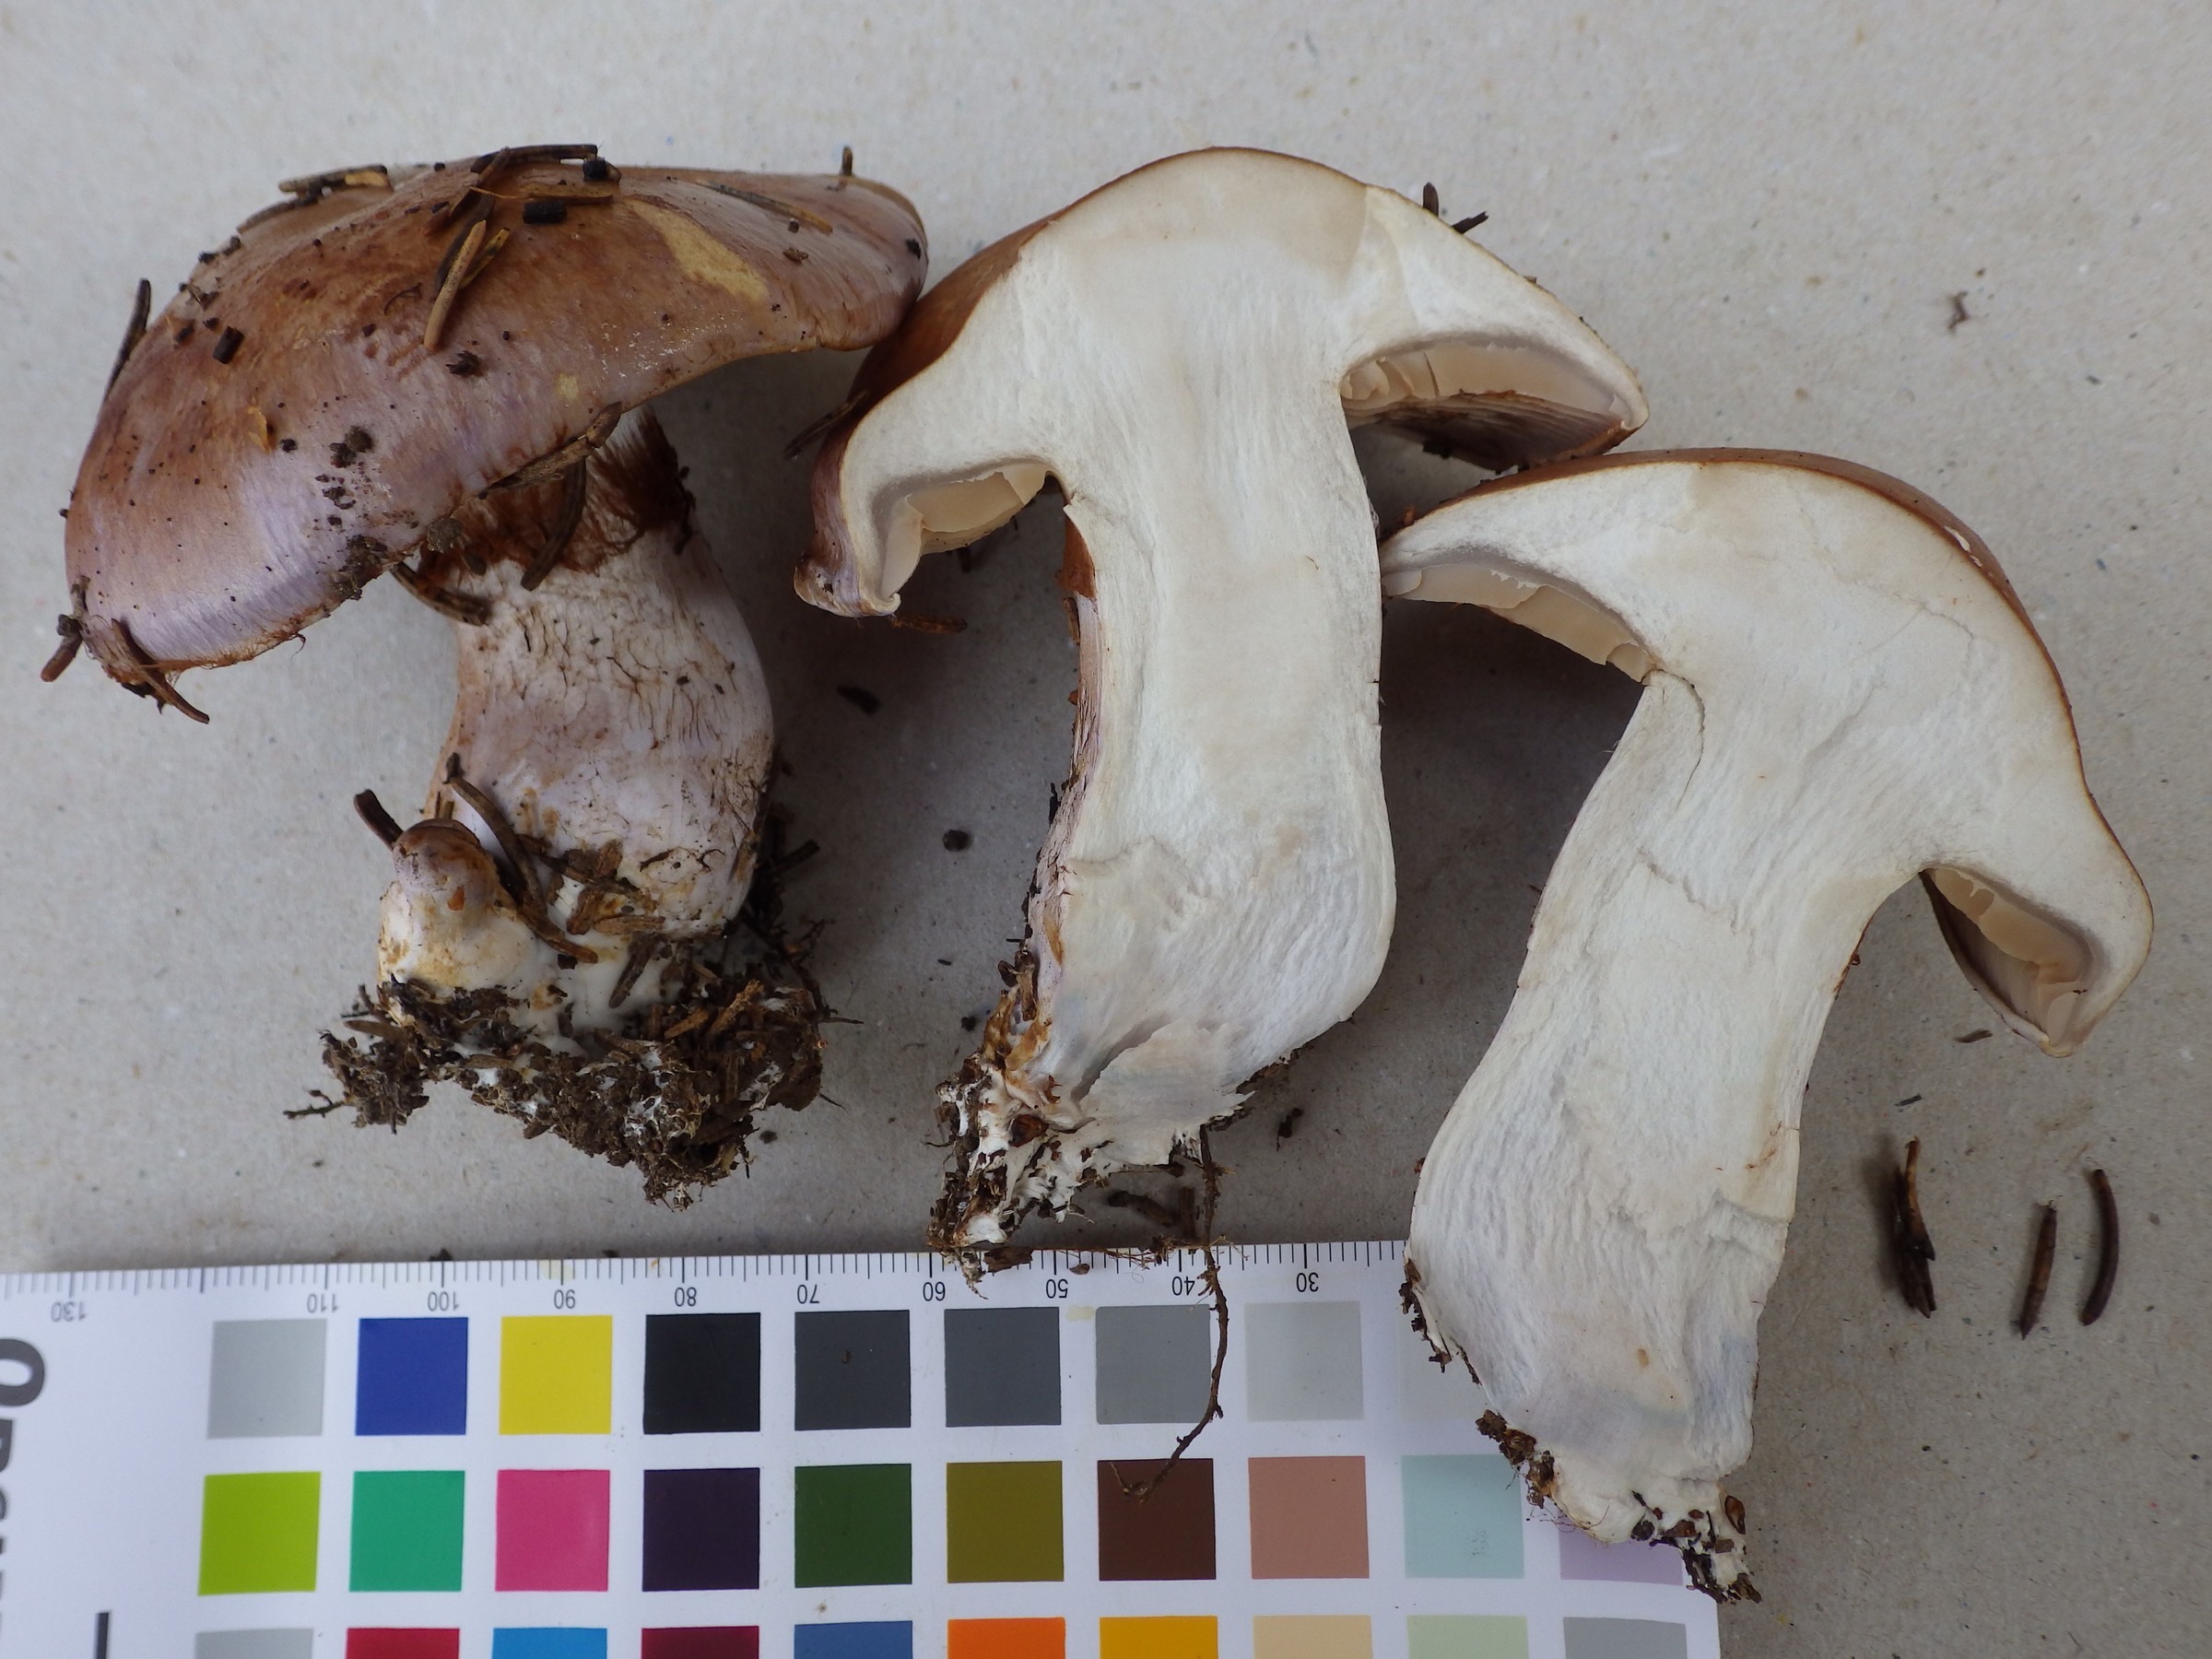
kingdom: Fungi
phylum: Basidiomycota
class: Agaricomycetes
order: Agaricales
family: Cortinariaceae
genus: Cortinarius
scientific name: Cortinarius variecolor
